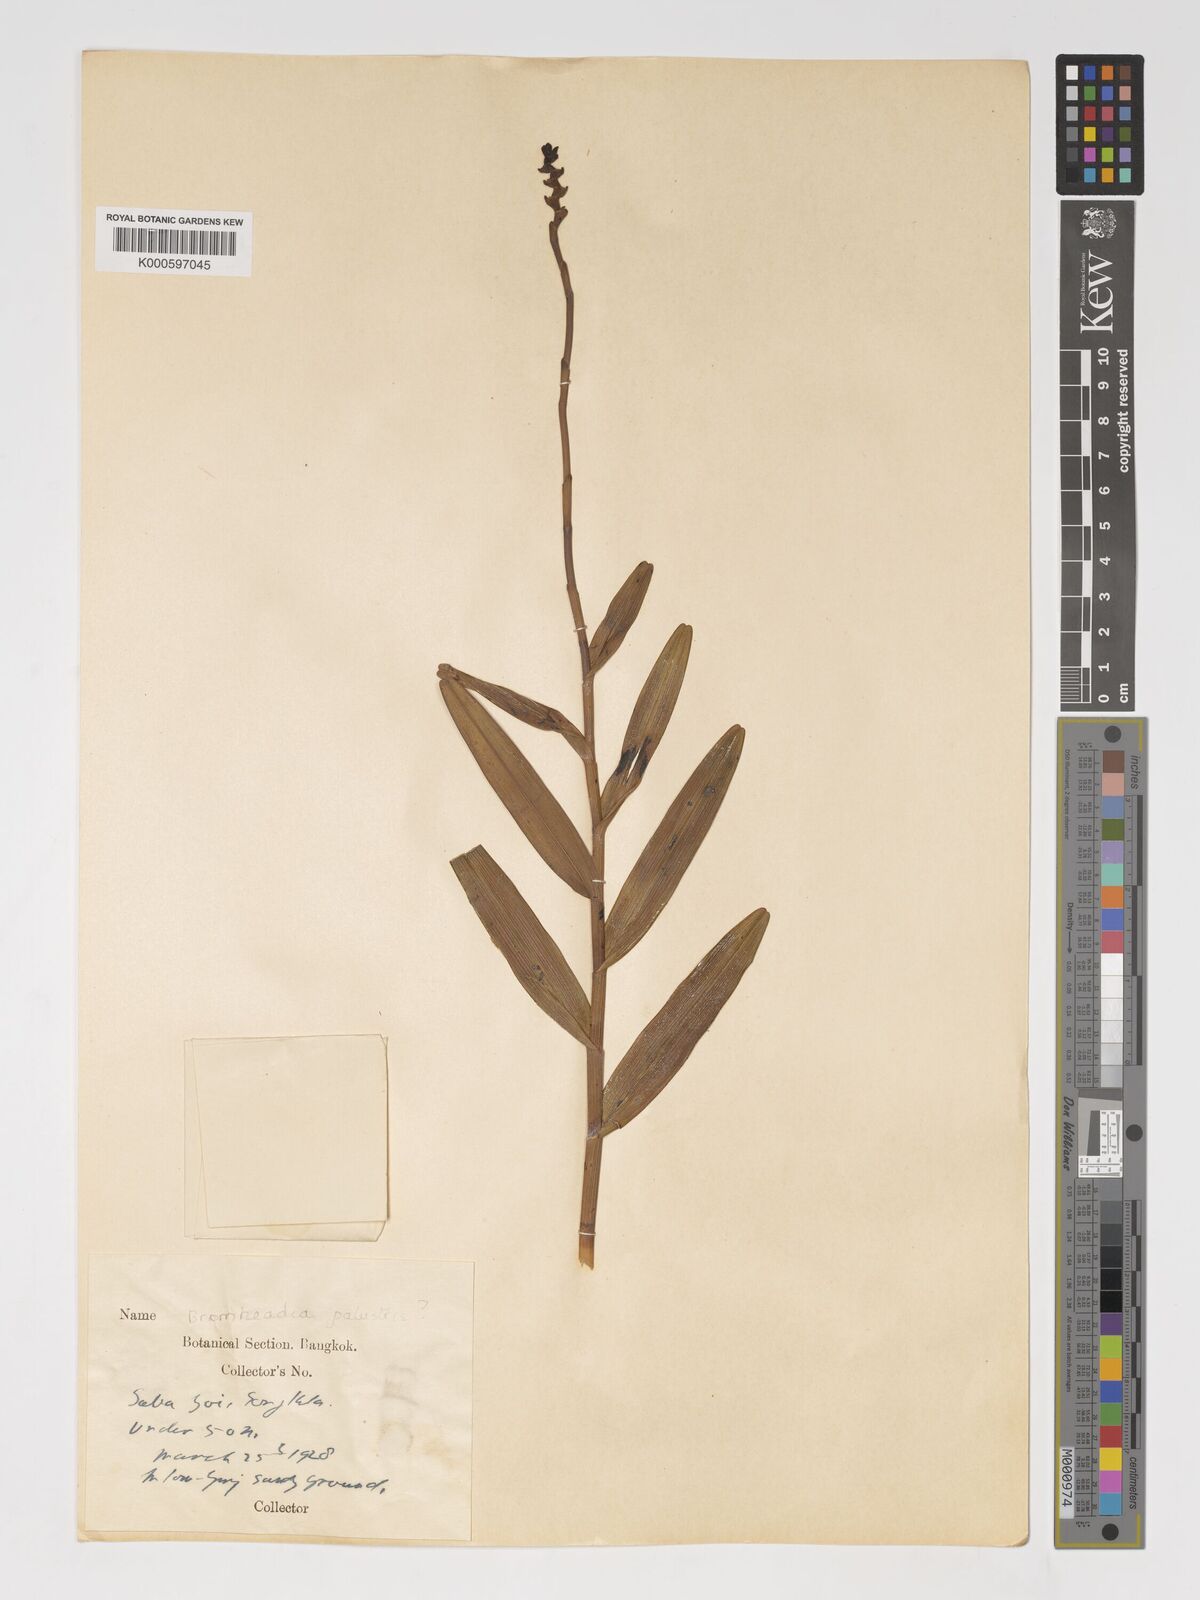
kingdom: Plantae
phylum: Tracheophyta
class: Liliopsida
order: Asparagales
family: Orchidaceae
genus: Bromheadia
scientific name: Bromheadia
